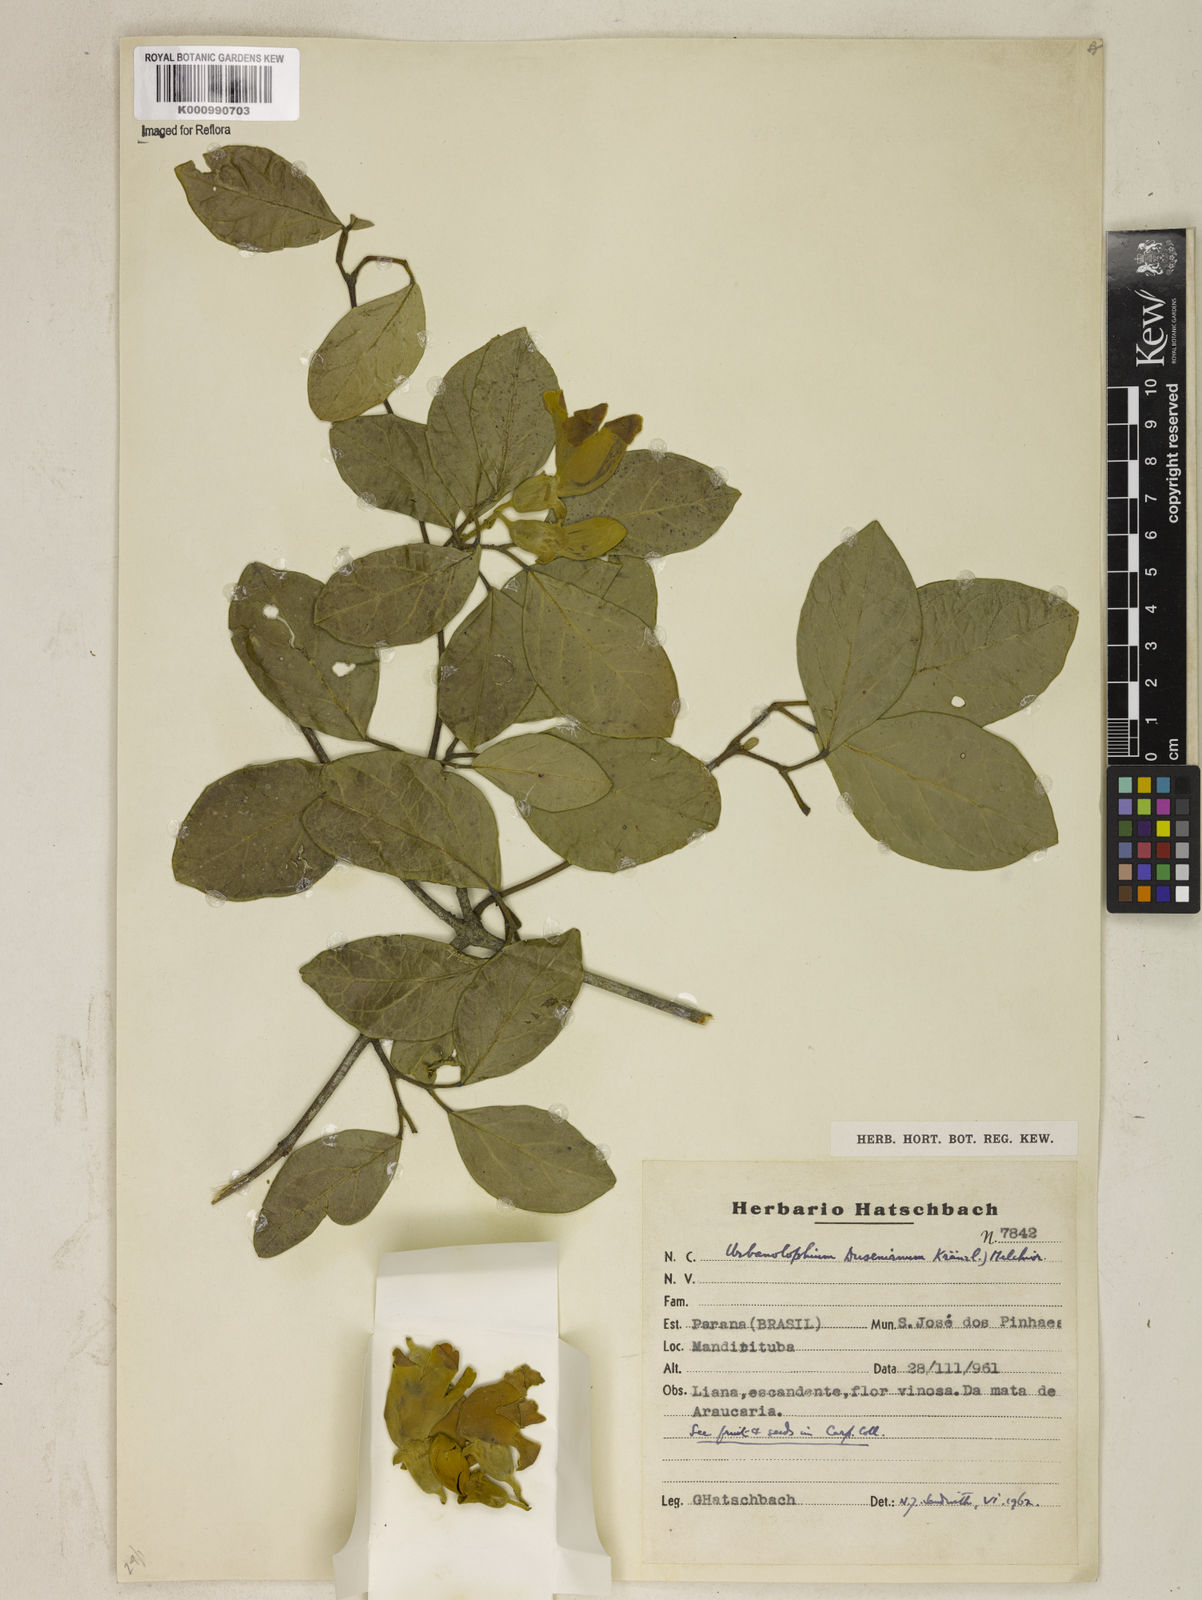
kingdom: Plantae
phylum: Tracheophyta
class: Magnoliopsida
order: Lamiales
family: Bignoniaceae
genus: Amphilophium
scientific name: Amphilophium dusenianum
